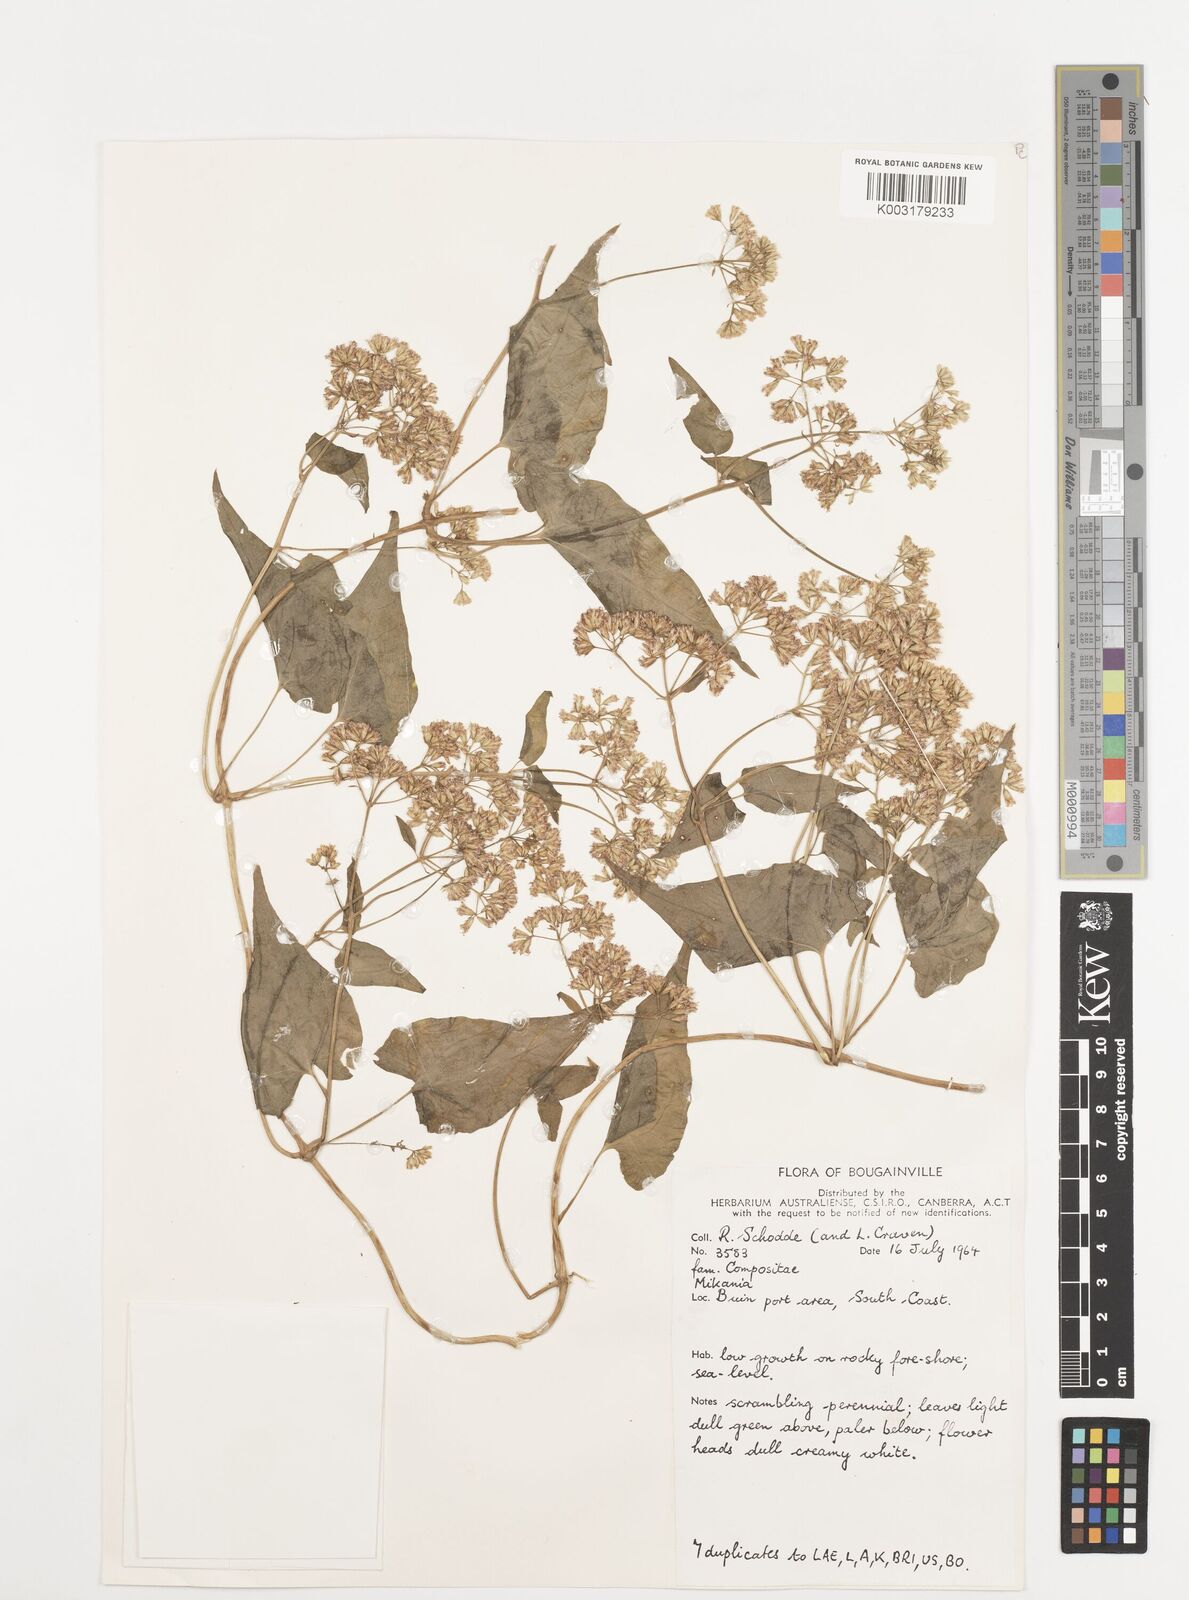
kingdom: Plantae
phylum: Tracheophyta
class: Magnoliopsida
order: Asterales
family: Asteraceae
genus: Mikania
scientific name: Mikania micrantha
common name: Mile-a-minute
